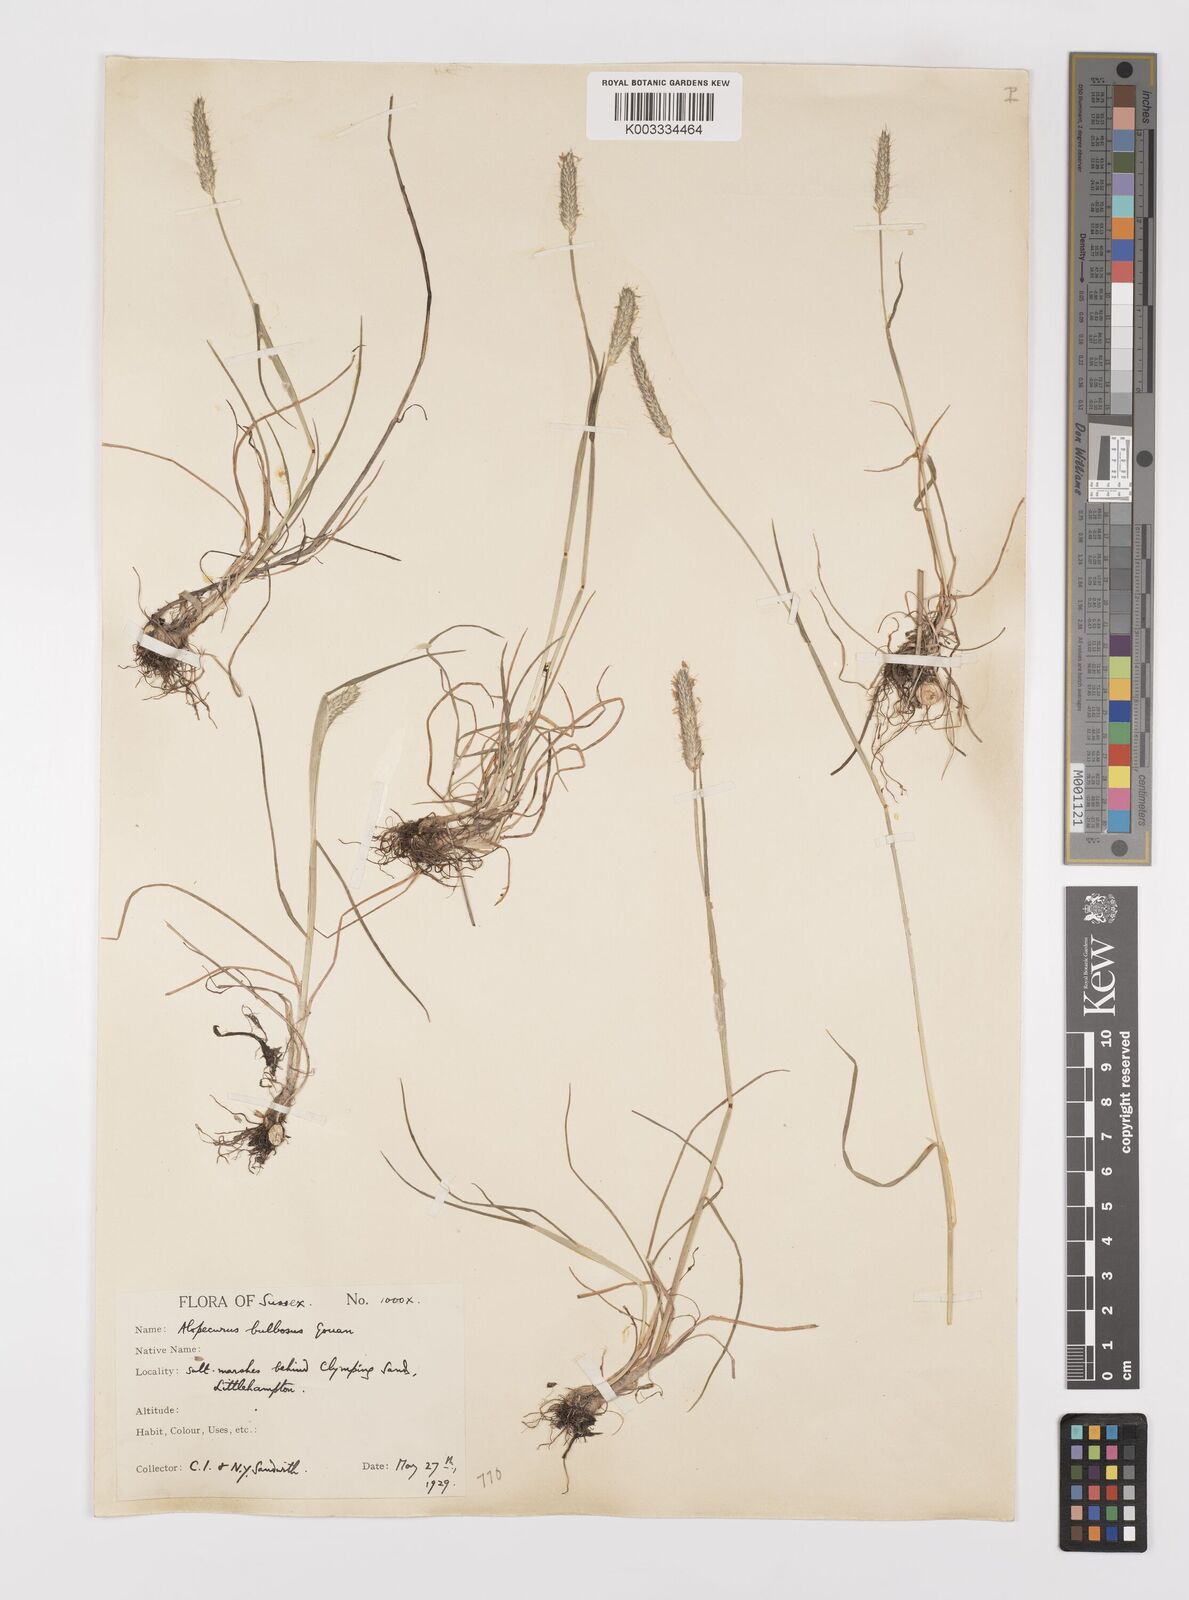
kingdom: Plantae
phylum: Tracheophyta
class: Liliopsida
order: Poales
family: Poaceae
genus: Alopecurus
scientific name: Alopecurus bulbosus
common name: Bulbous foxtail
